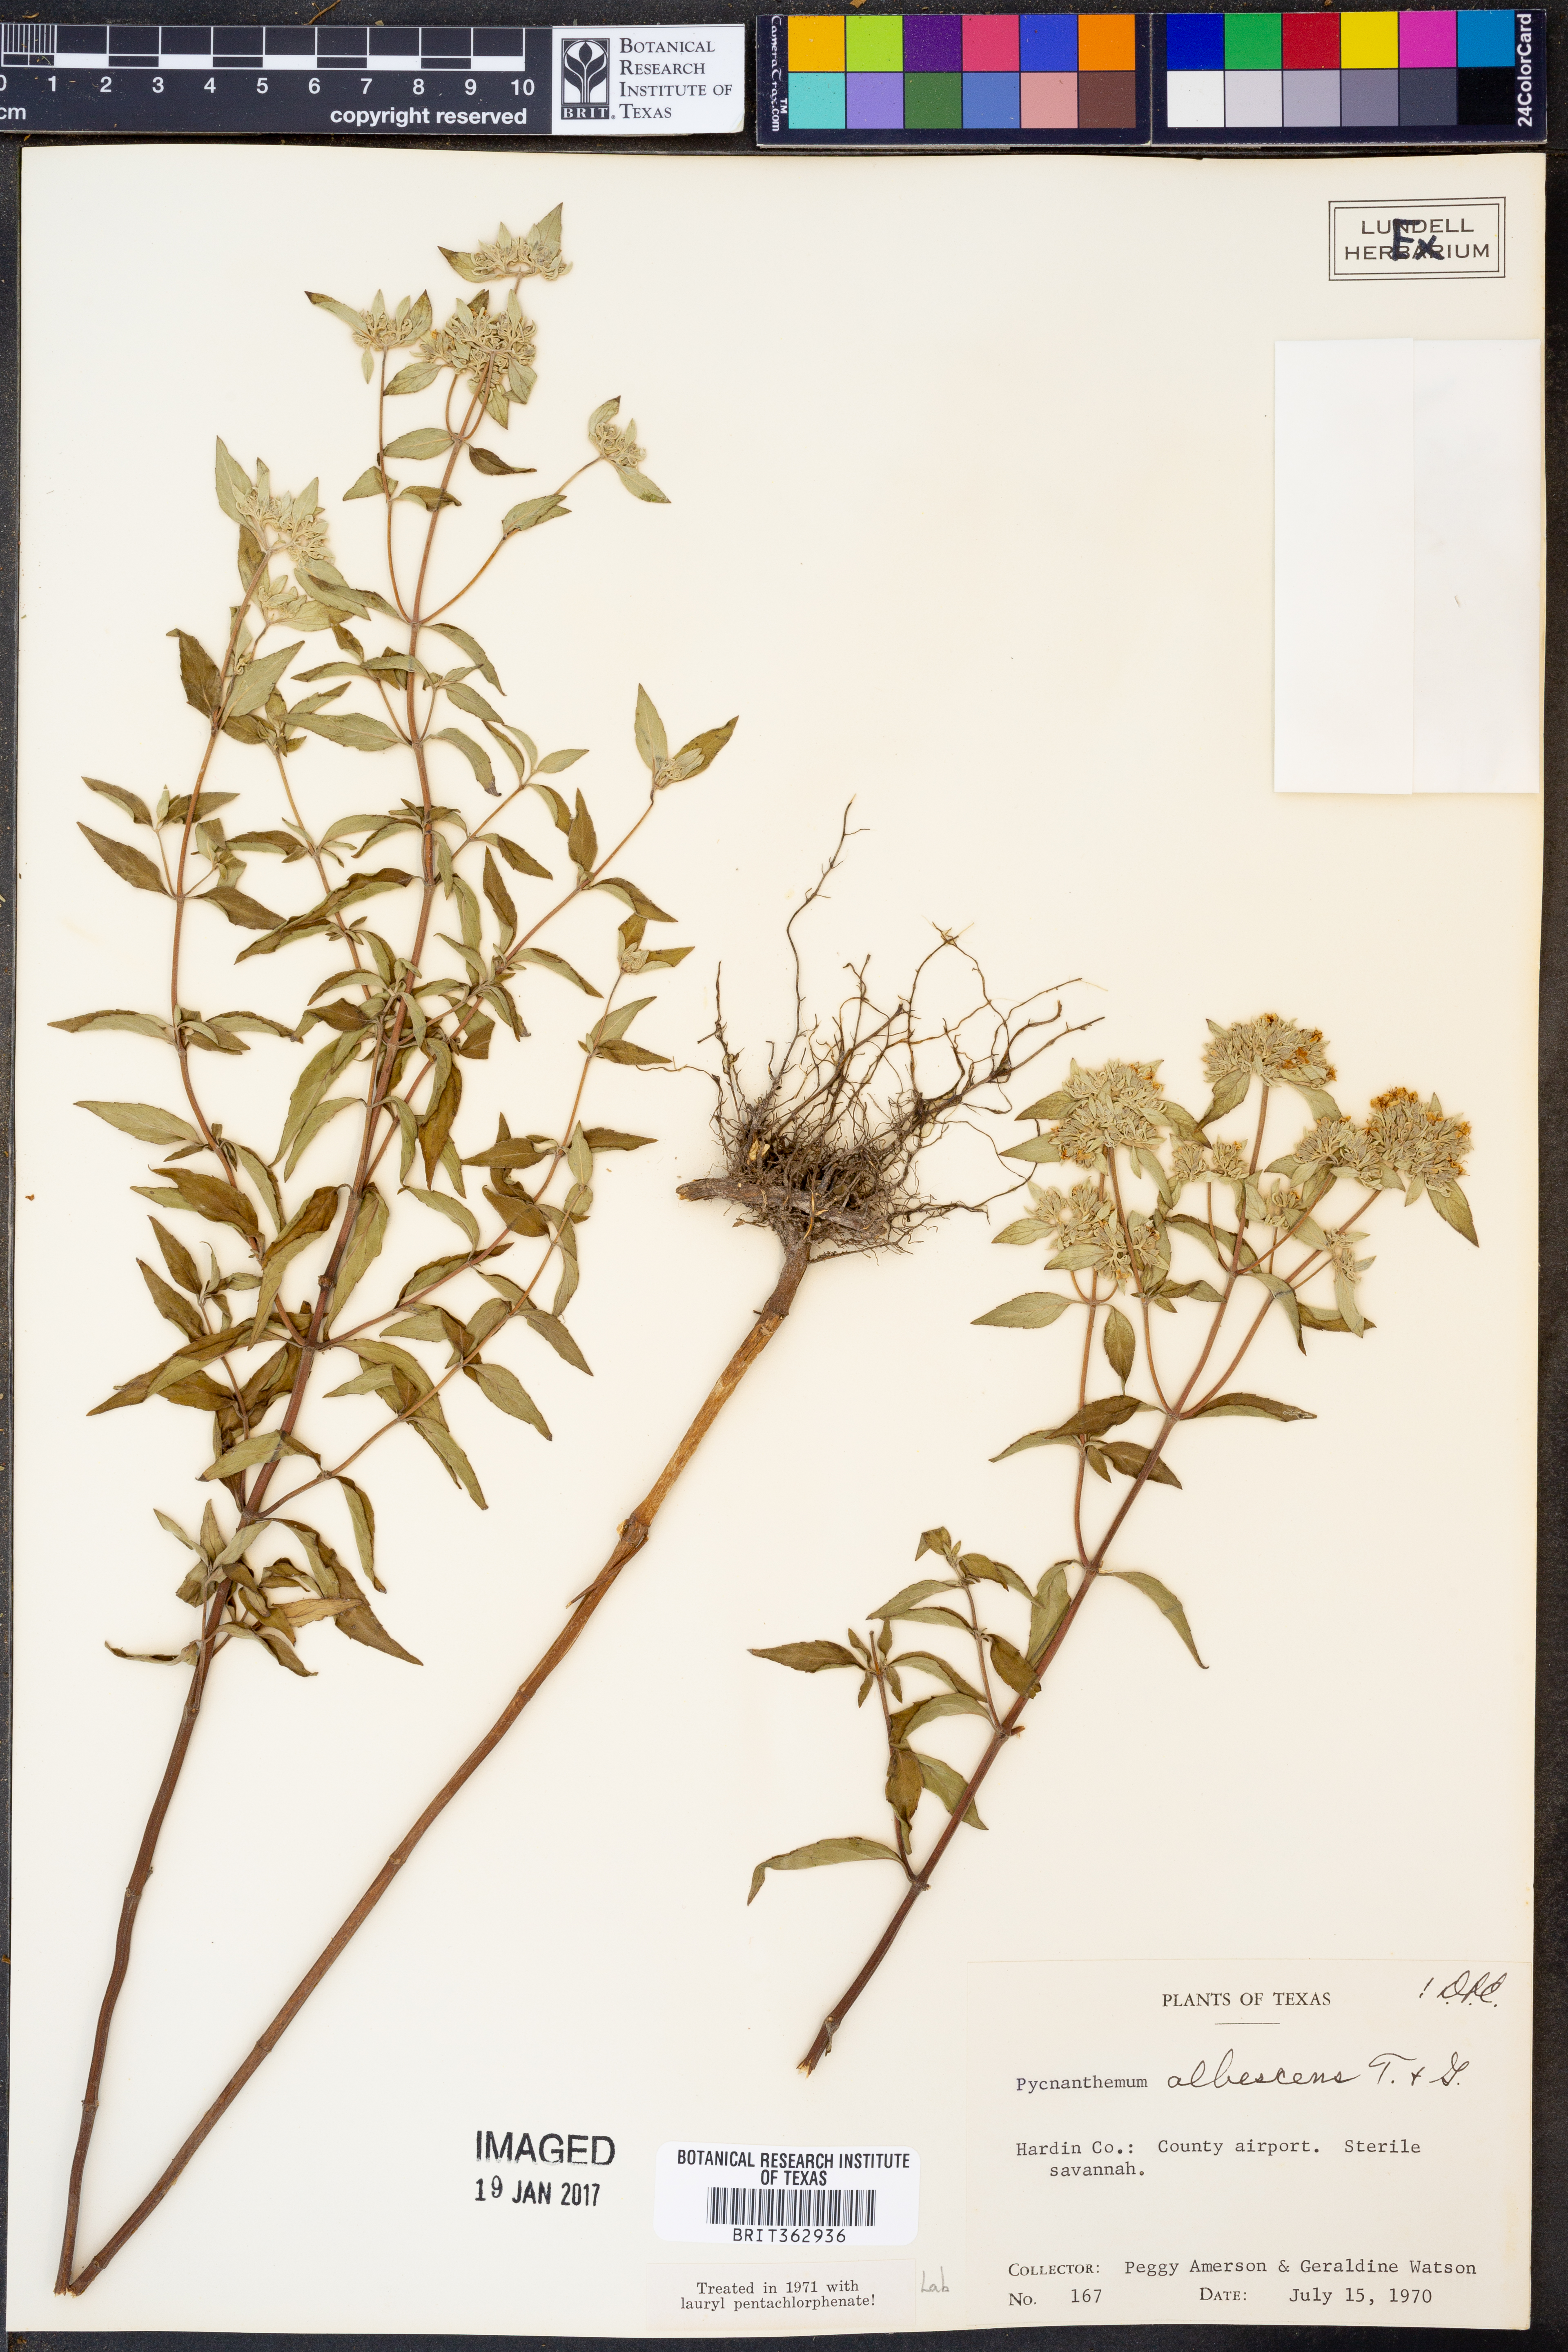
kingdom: Plantae
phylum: Tracheophyta
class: Magnoliopsida
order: Lamiales
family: Lamiaceae
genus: Pycnanthemum
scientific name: Pycnanthemum albescens
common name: White-leaf mountain-mint
